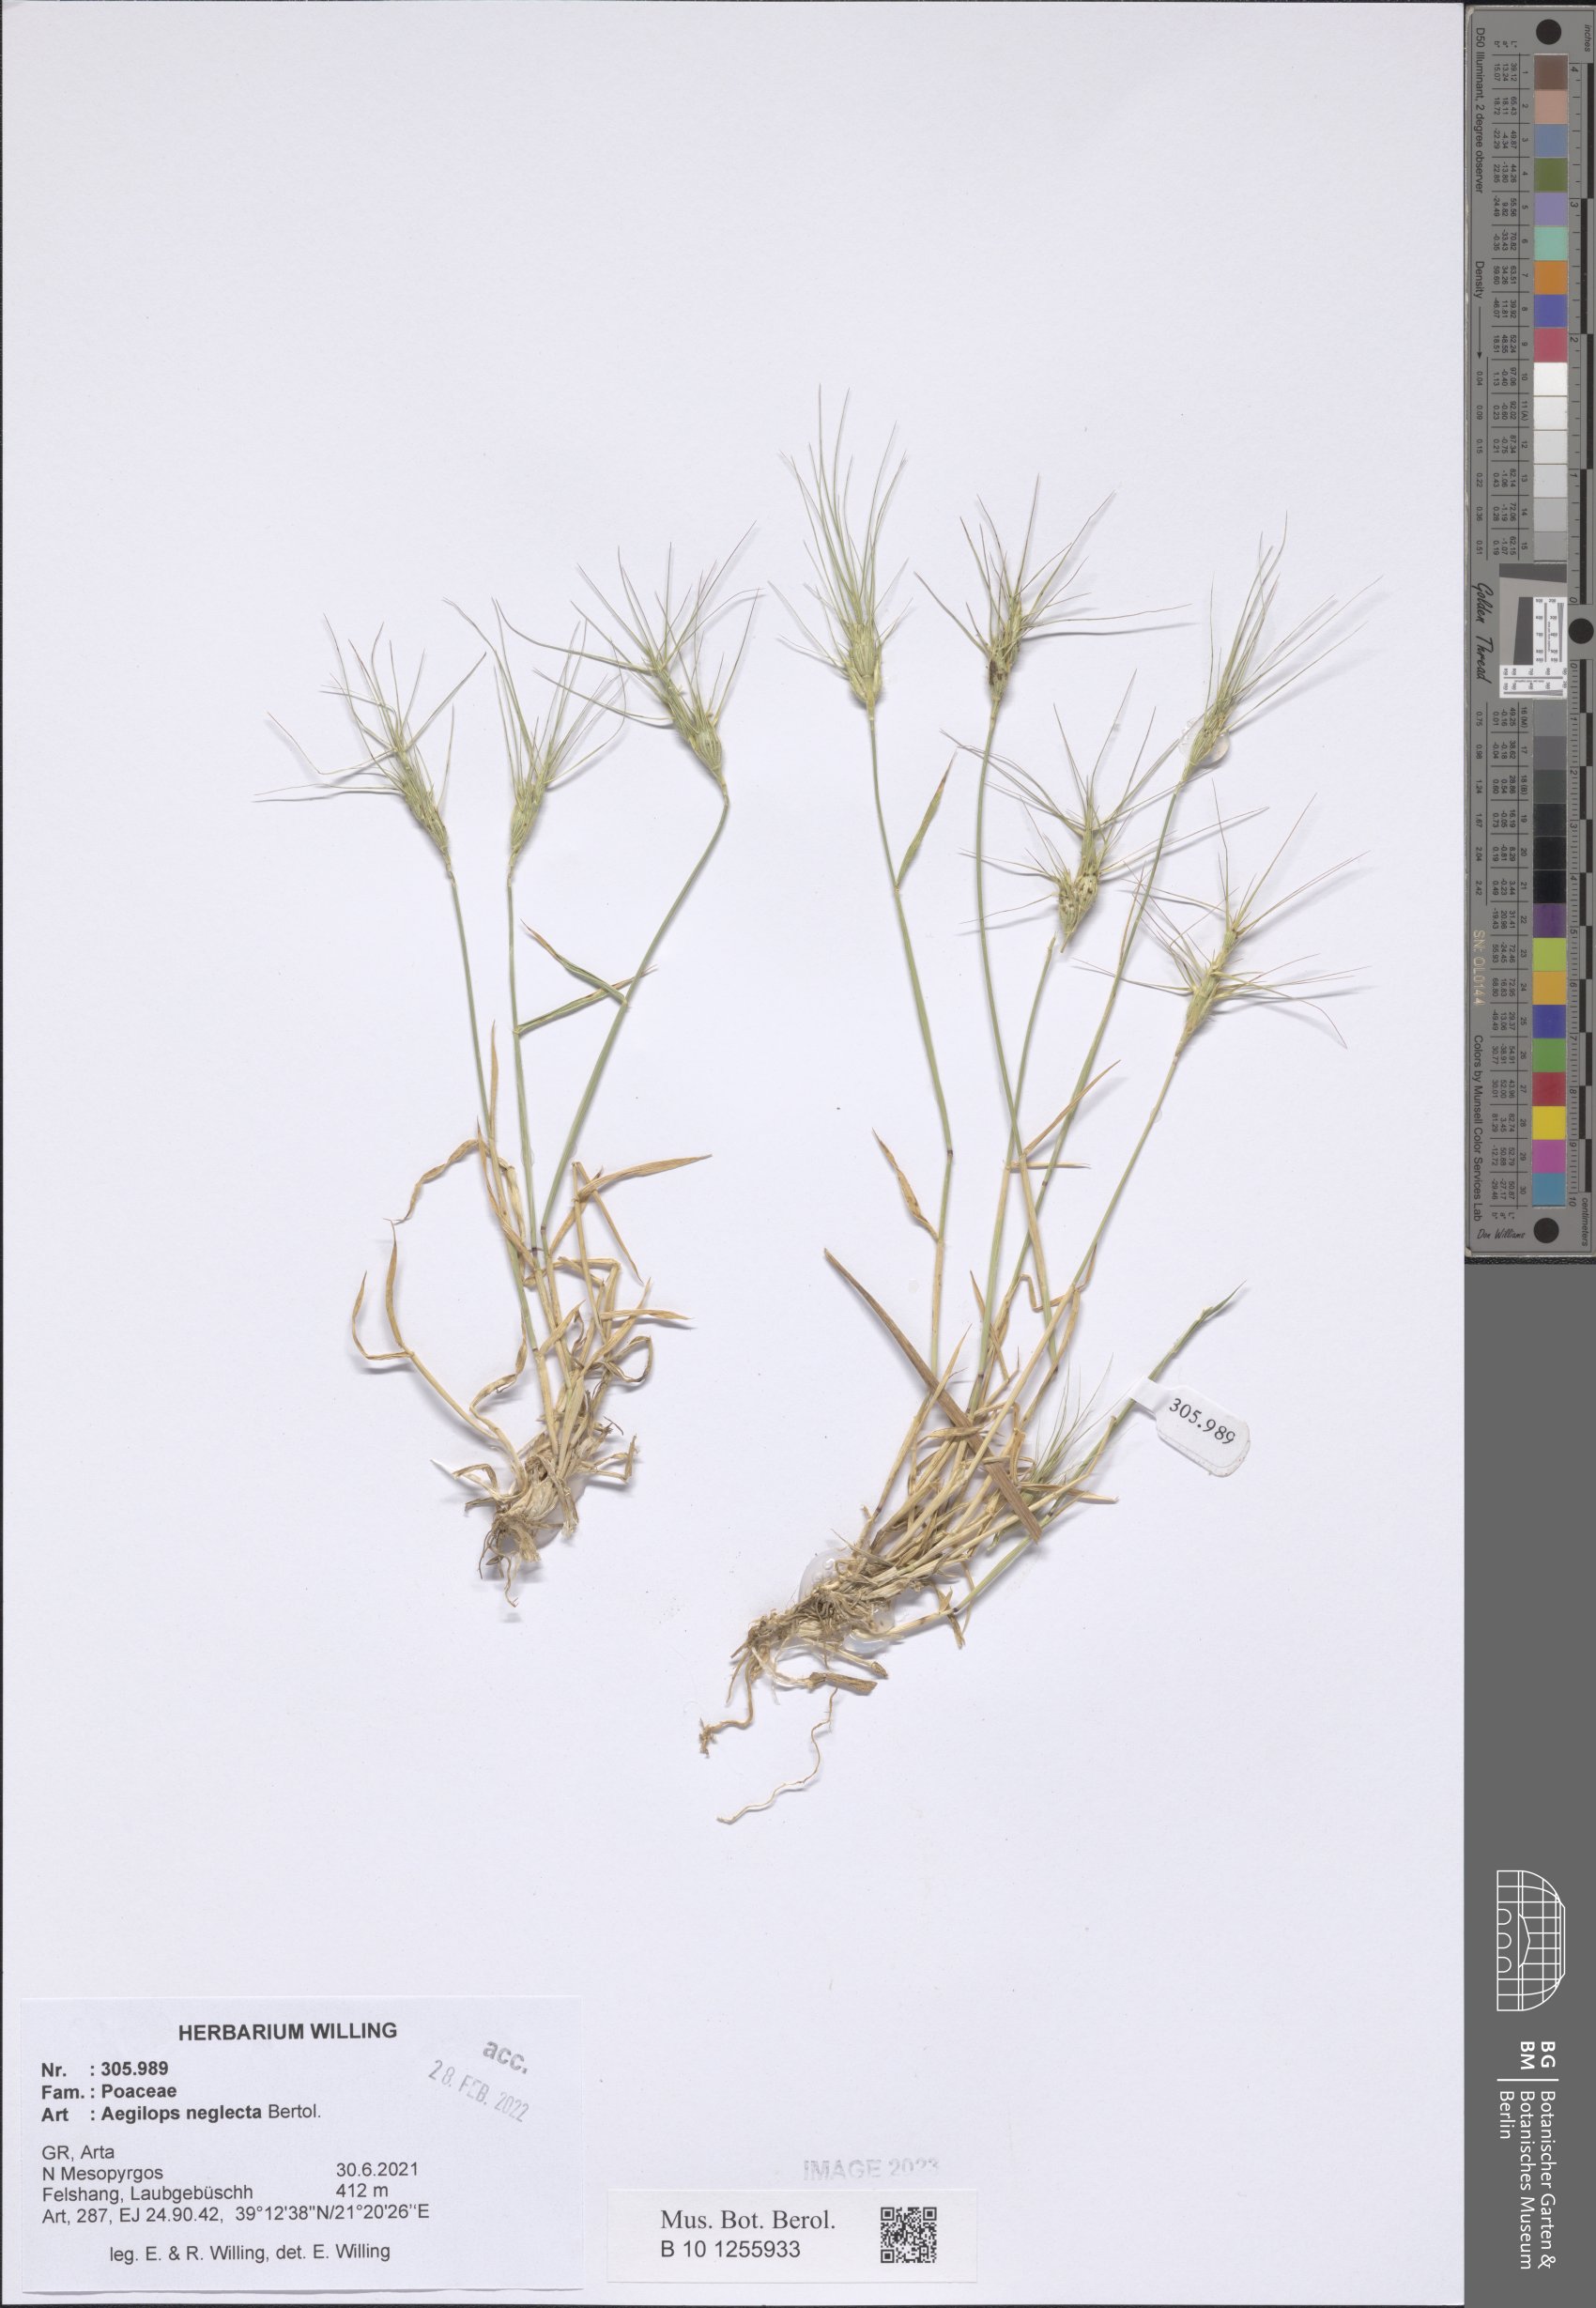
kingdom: Plantae
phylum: Tracheophyta
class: Liliopsida
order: Poales
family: Poaceae
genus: Aegilops
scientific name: Aegilops neglecta
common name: Three-awn goat grass
